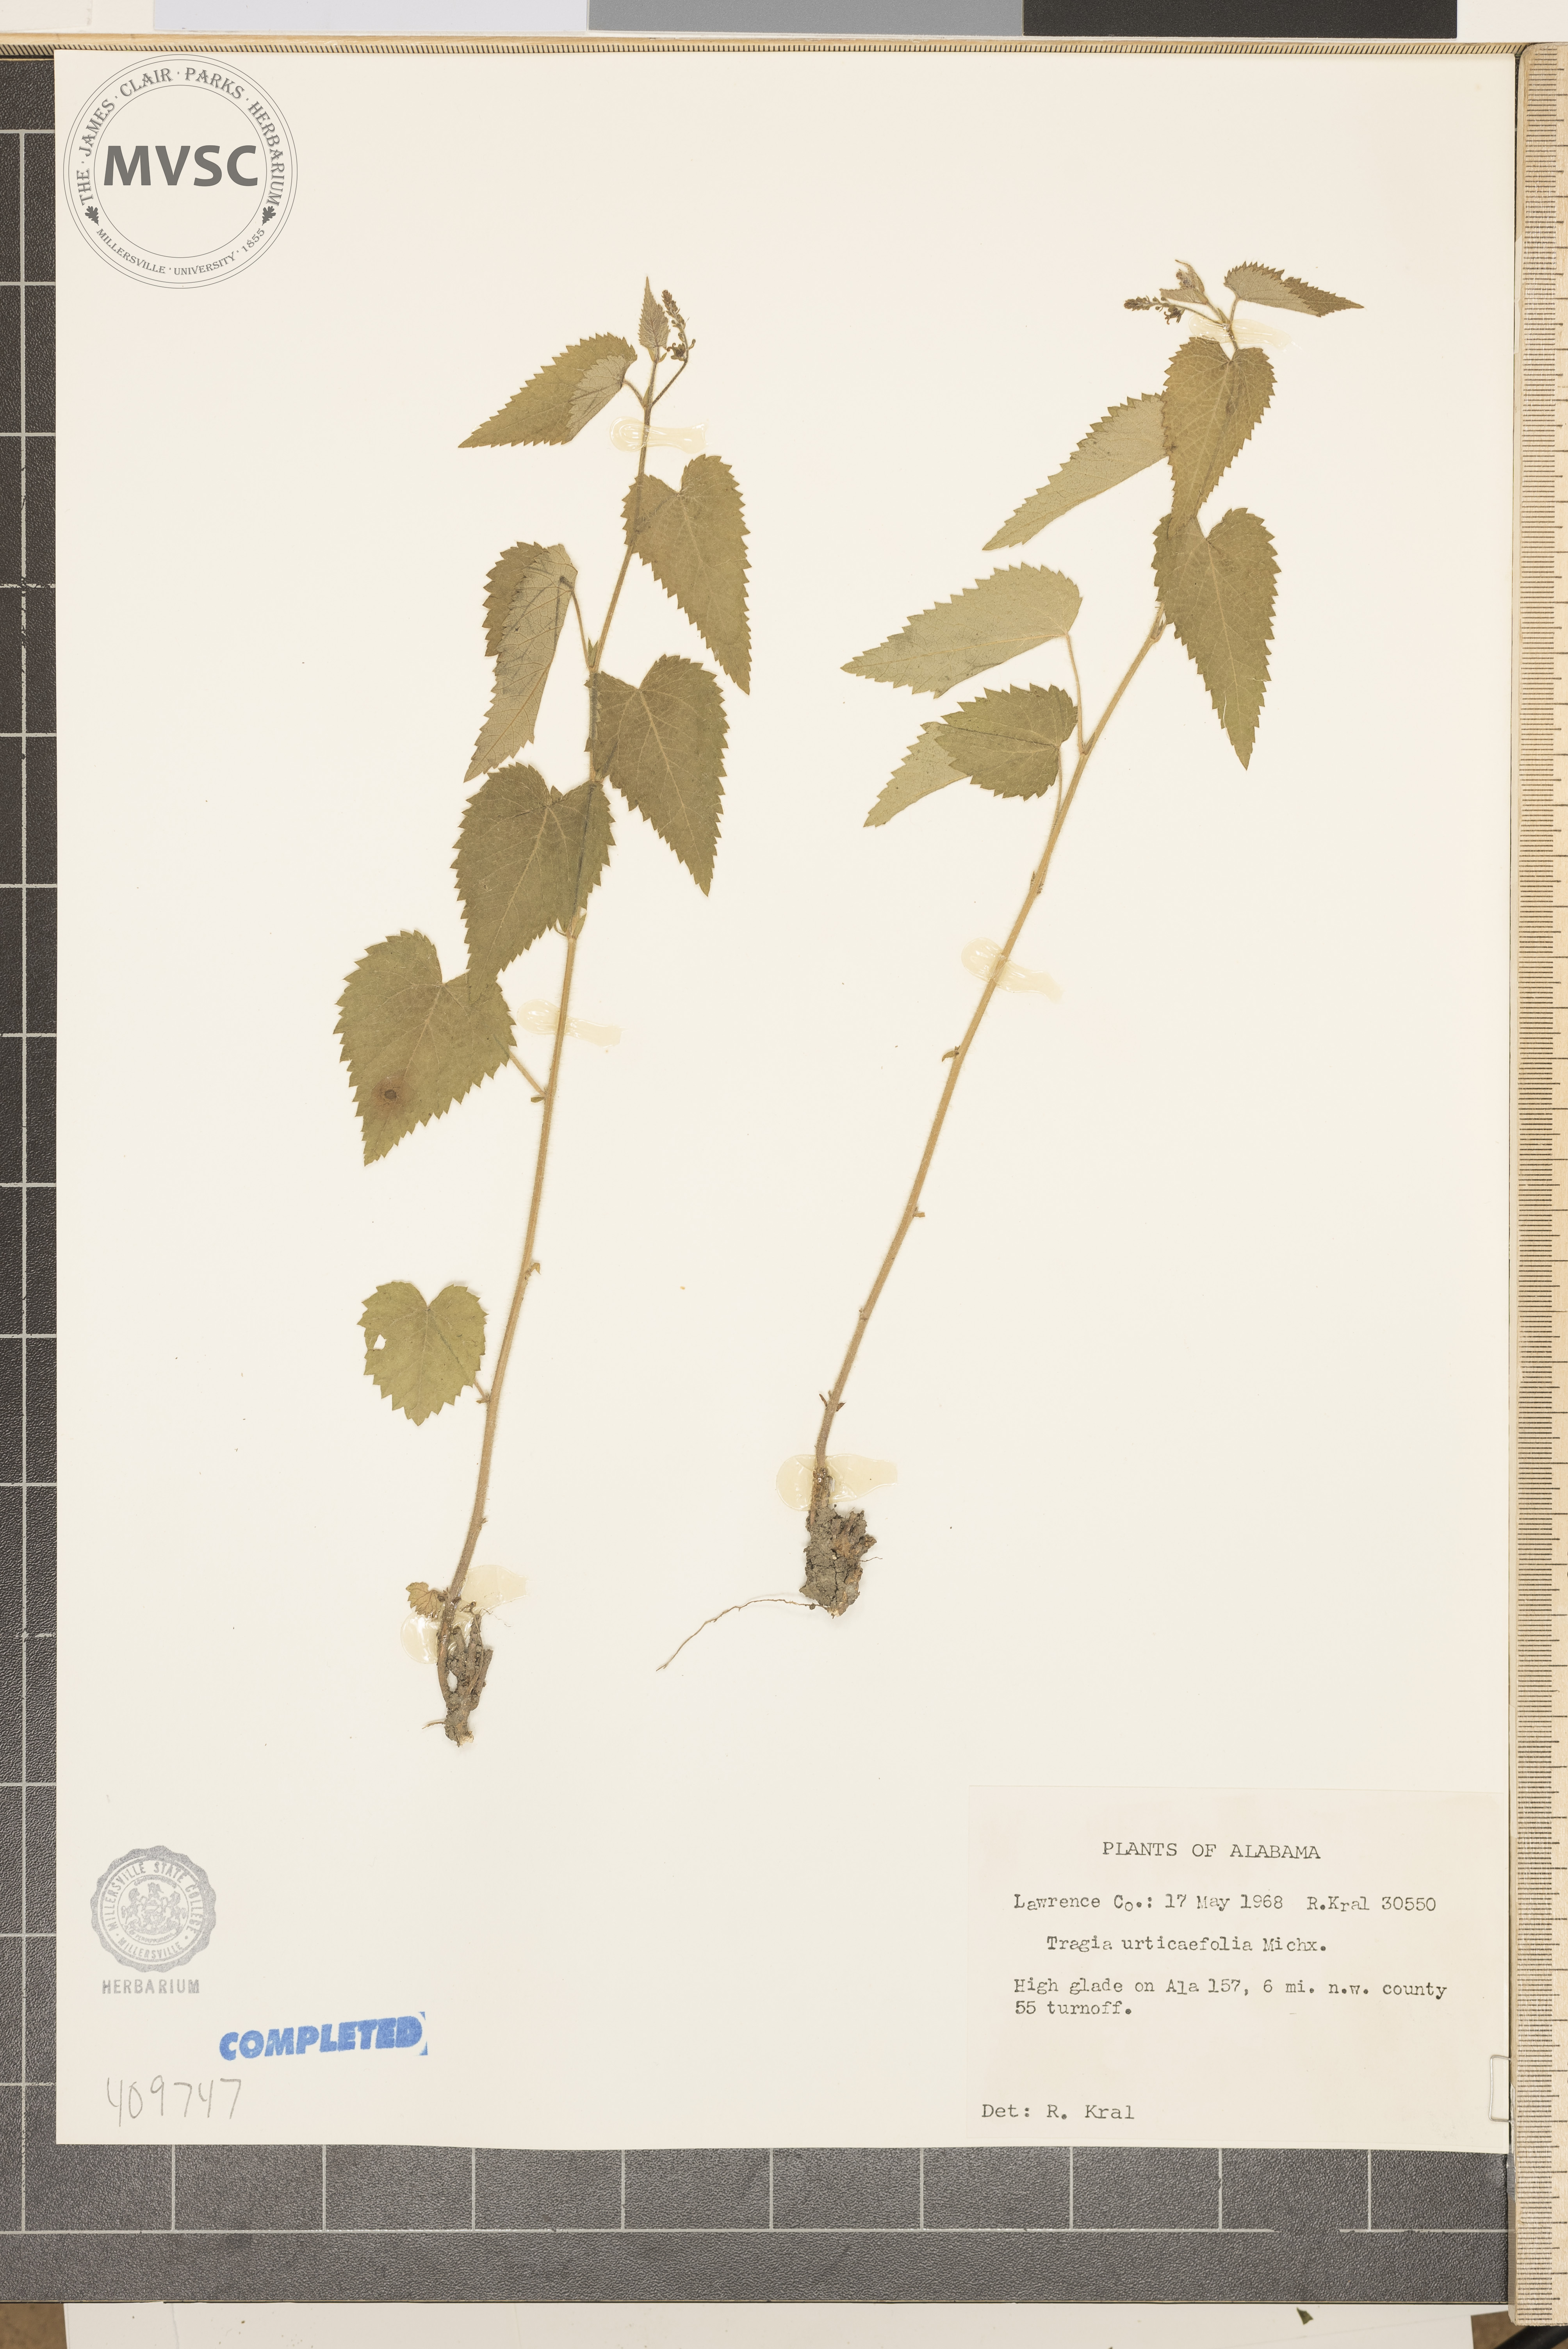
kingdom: Plantae
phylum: Tracheophyta
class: Magnoliopsida
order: Malpighiales
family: Euphorbiaceae
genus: Tragia
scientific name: Tragia urticifolia
